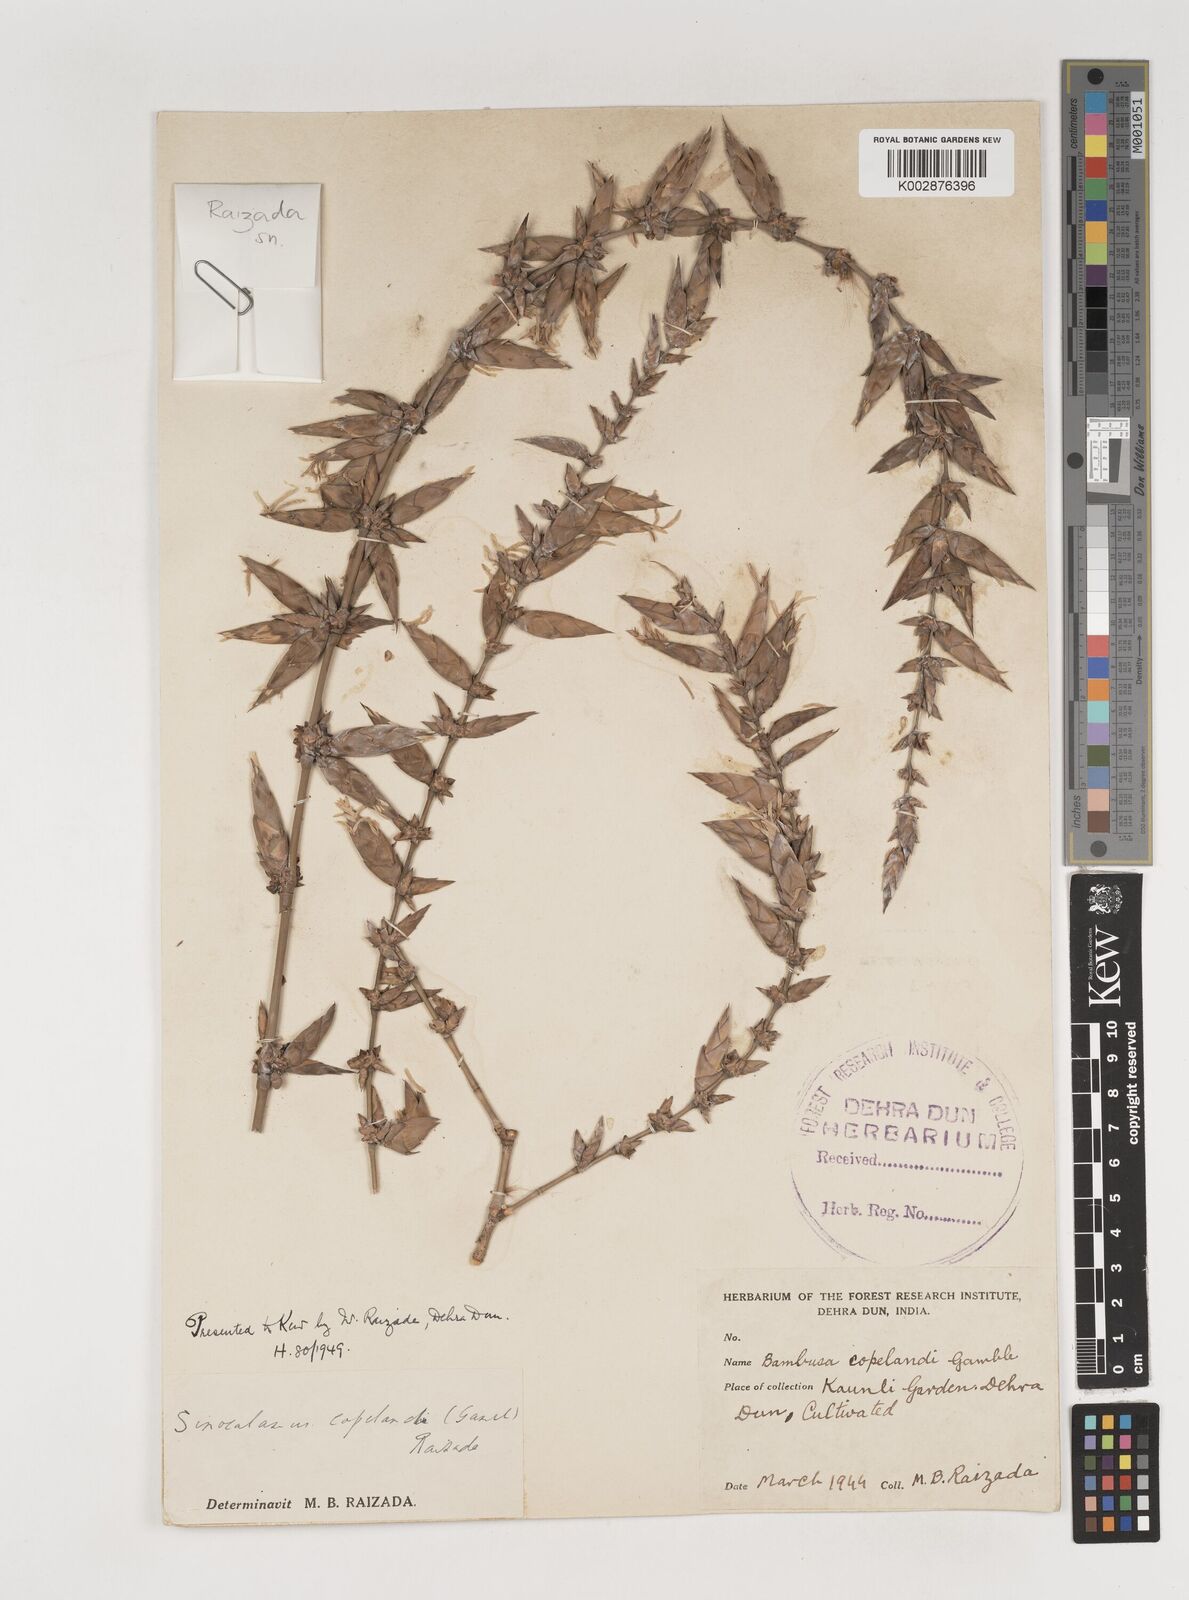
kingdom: Plantae
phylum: Tracheophyta
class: Liliopsida
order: Poales
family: Poaceae
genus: Bambusa
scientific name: Bambusa copelandii
